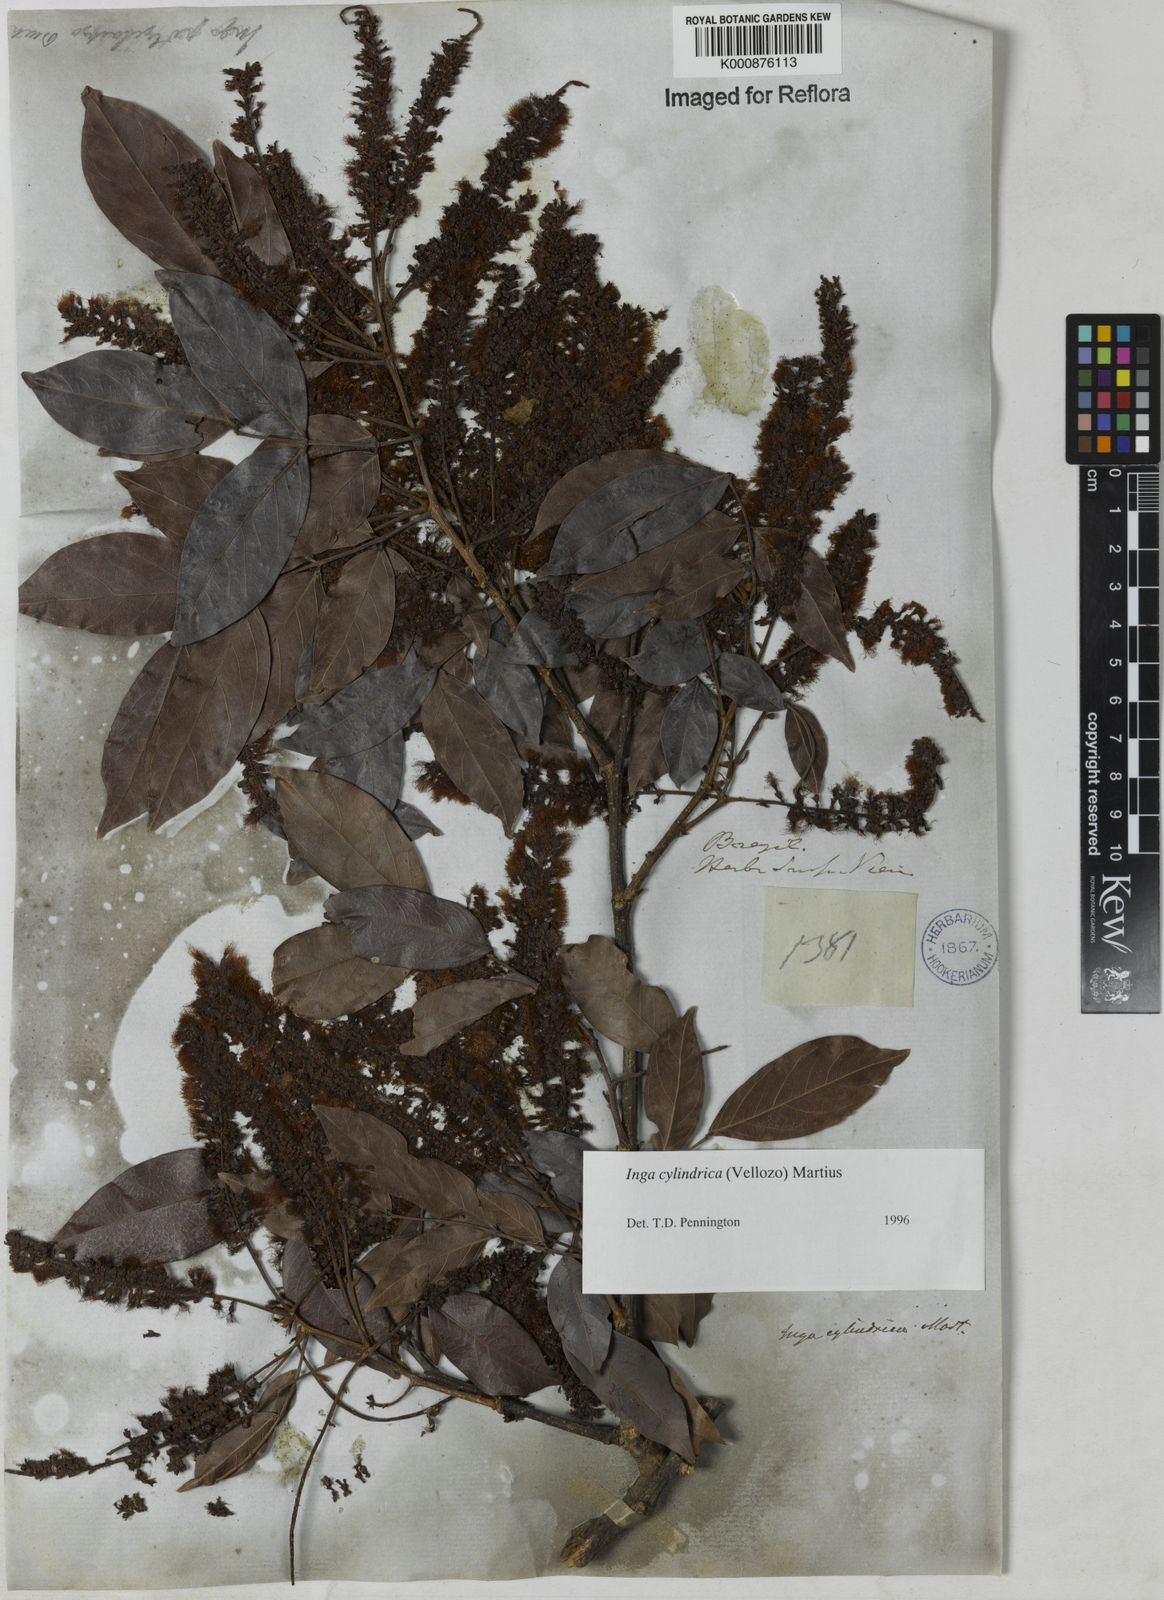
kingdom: Plantae
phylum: Tracheophyta
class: Magnoliopsida
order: Fabales
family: Fabaceae
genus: Inga
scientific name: Inga cylindrica
